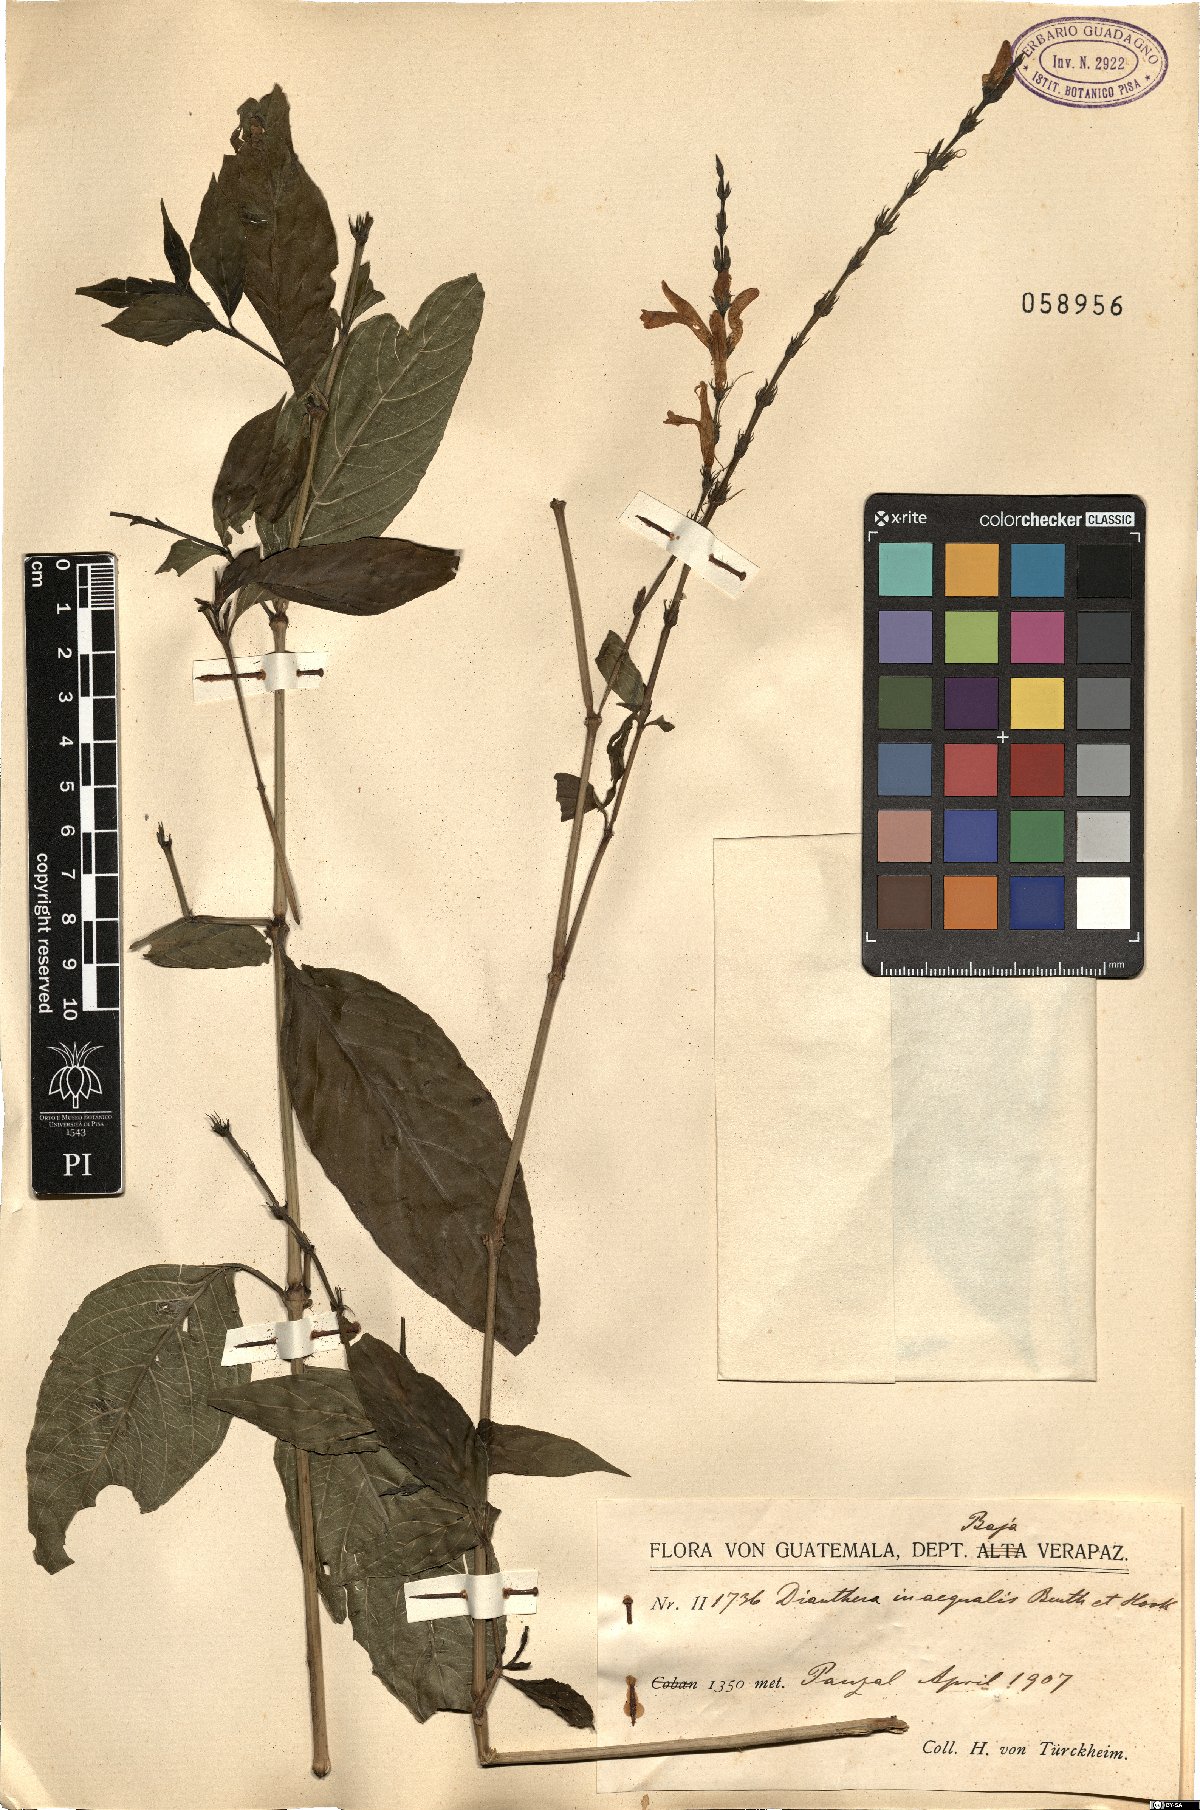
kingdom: Plantae
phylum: Tracheophyta
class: Magnoliopsida
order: Lamiales
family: Acanthaceae
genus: Dianthera
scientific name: Dianthera inaequalis
